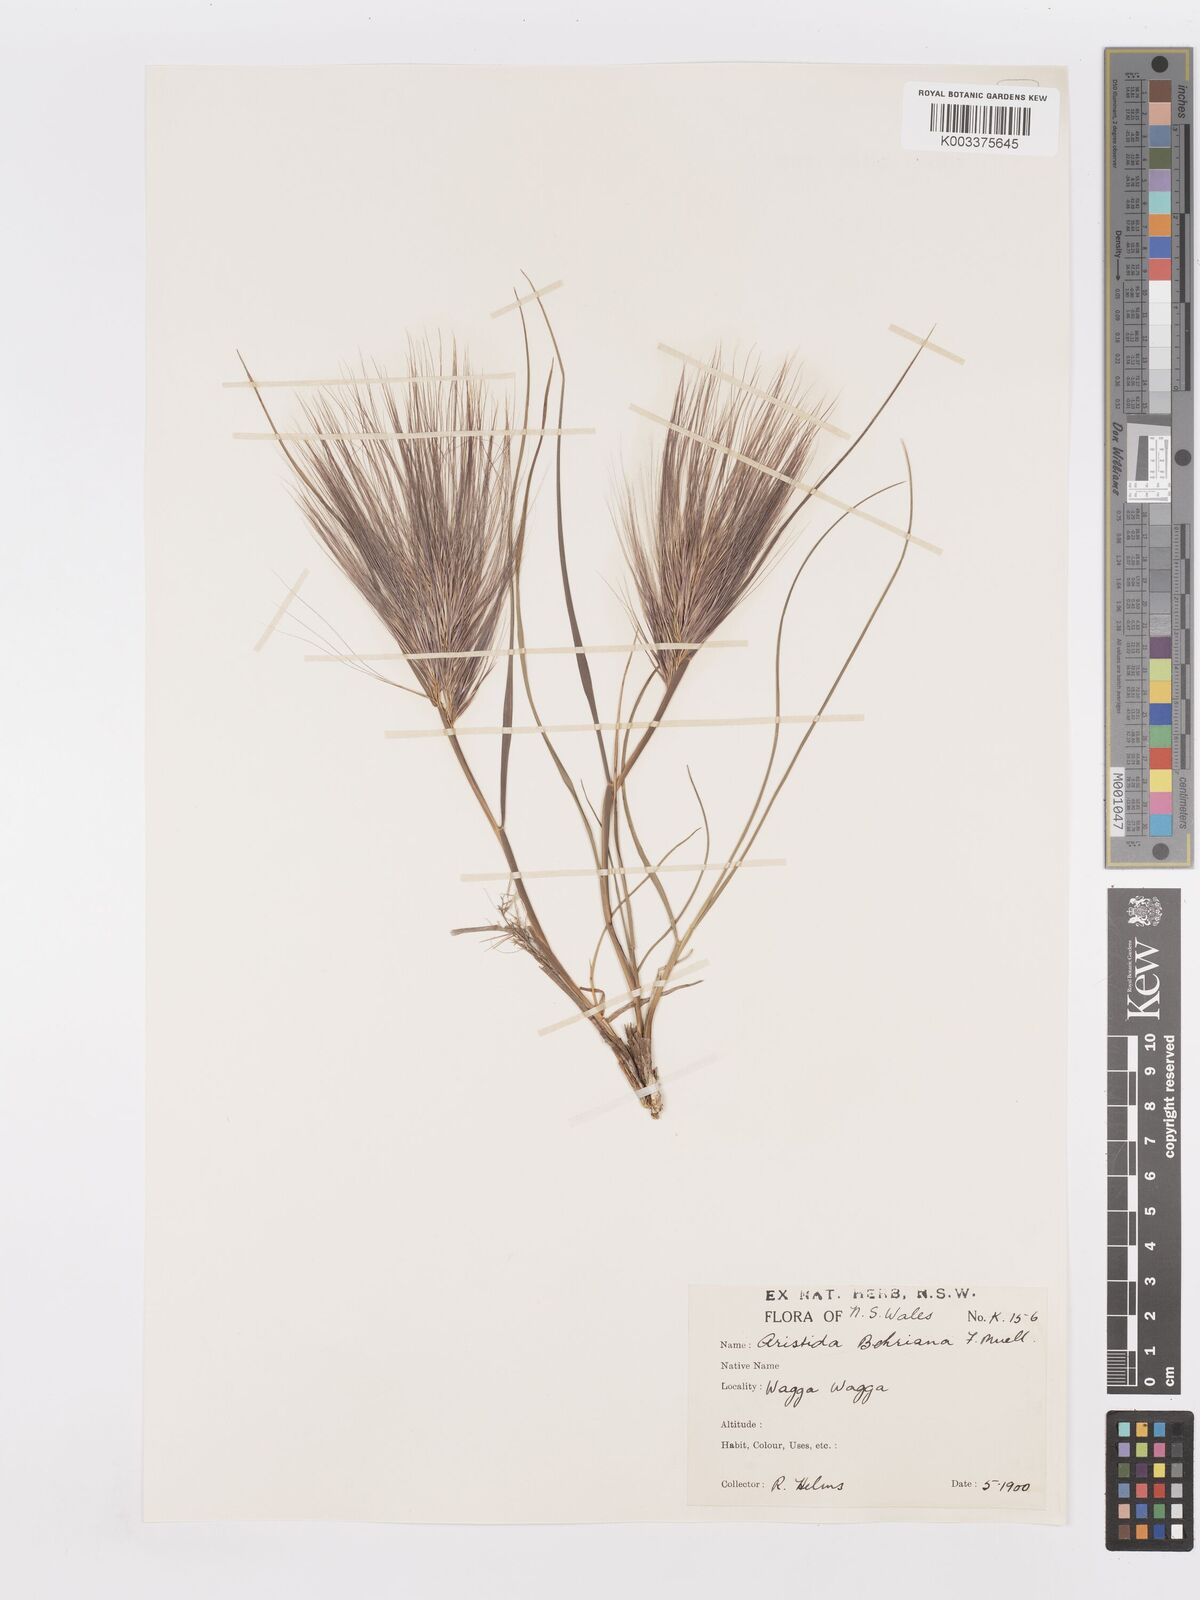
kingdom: Plantae
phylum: Tracheophyta
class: Liliopsida
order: Poales
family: Poaceae
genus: Aristida
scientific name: Aristida behriana
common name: Long-awn wire grass
